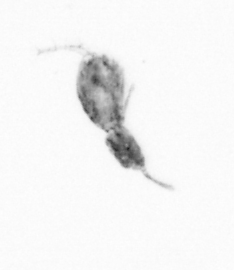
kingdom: Animalia
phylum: Arthropoda
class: Copepoda
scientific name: Copepoda
